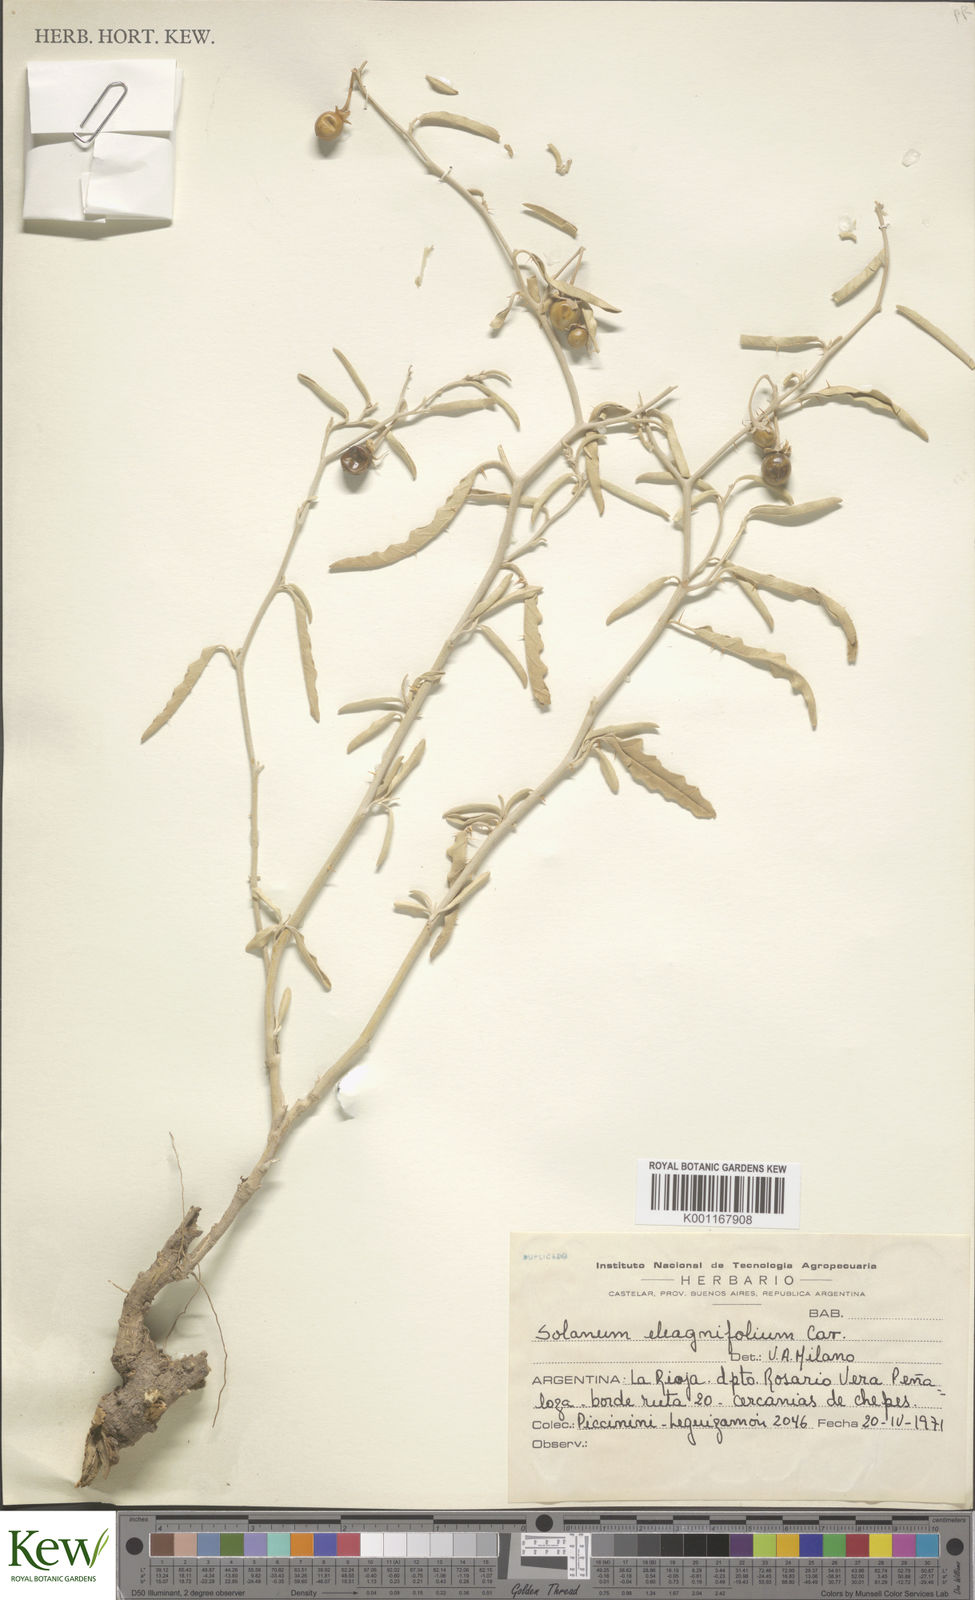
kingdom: Plantae
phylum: Tracheophyta
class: Magnoliopsida
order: Solanales
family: Solanaceae
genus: Solanum
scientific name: Solanum elaeagnifolium
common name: Silverleaf nightshade
